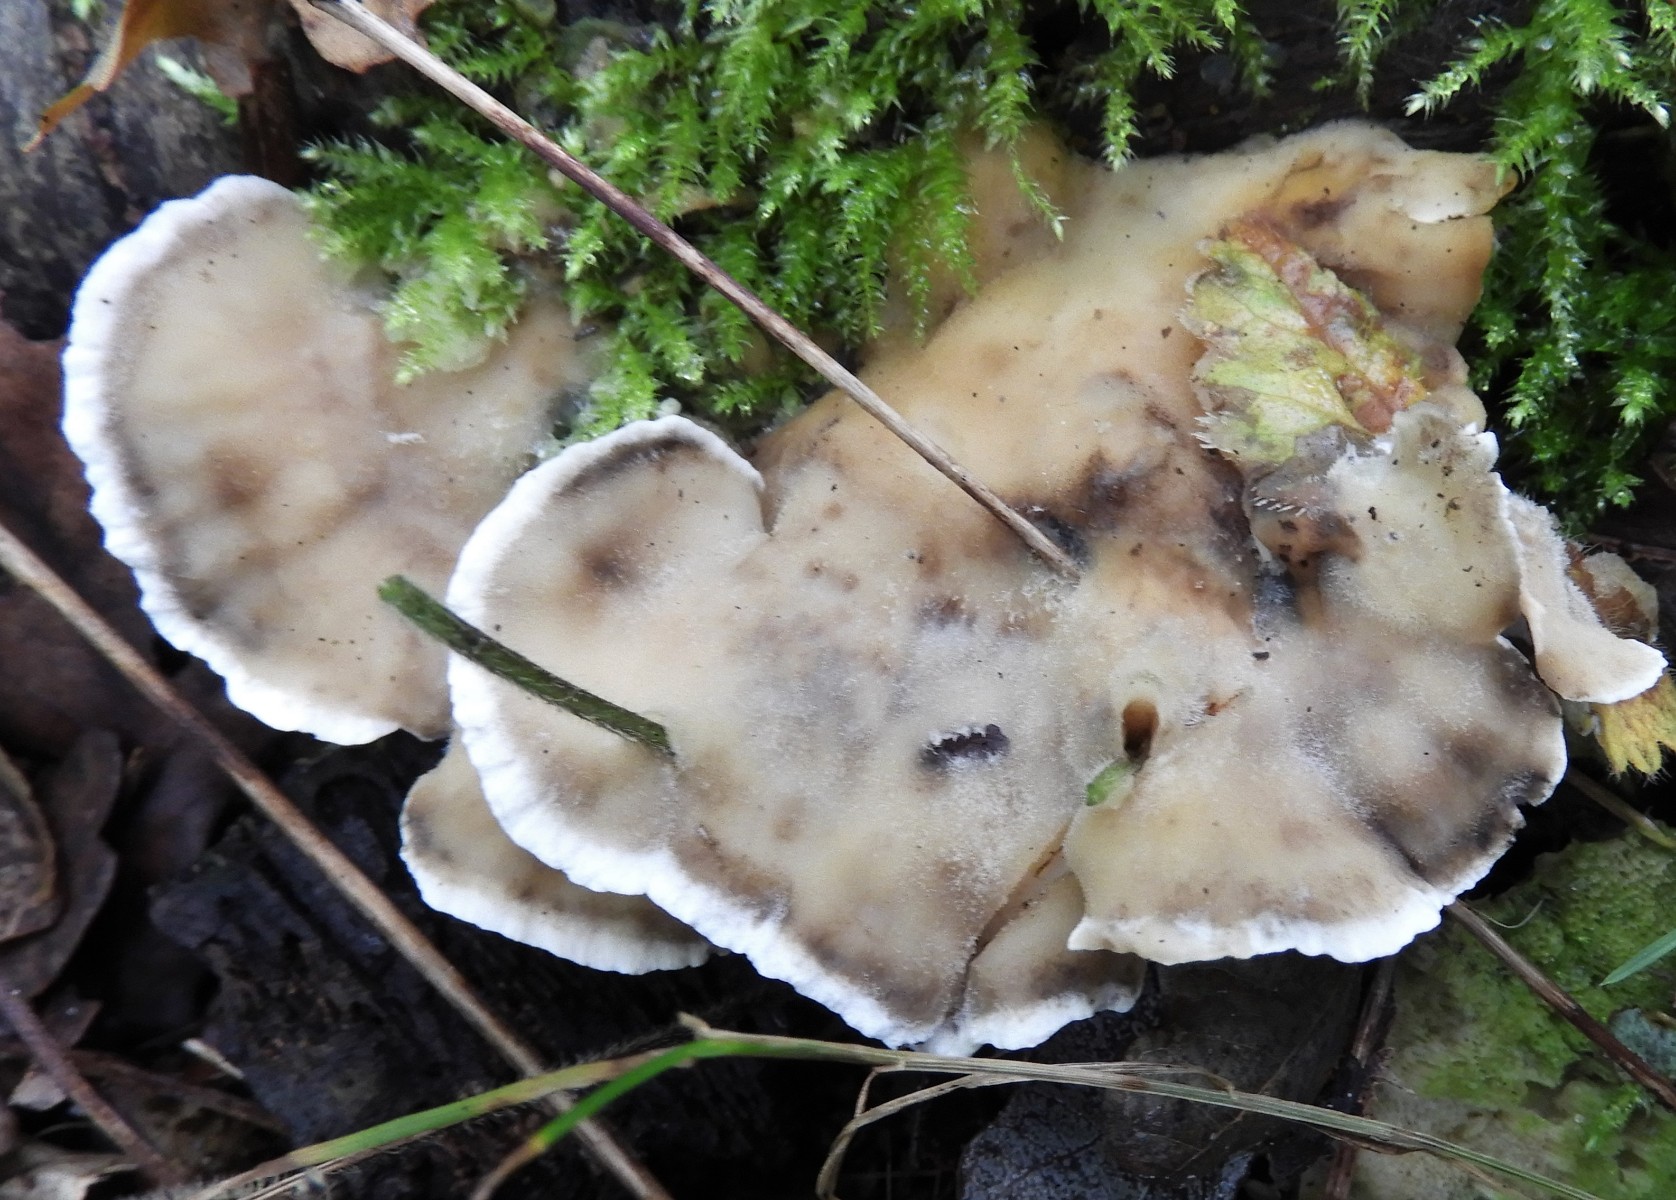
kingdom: Fungi
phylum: Basidiomycota
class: Agaricomycetes
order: Polyporales
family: Phanerochaetaceae
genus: Bjerkandera
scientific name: Bjerkandera adusta
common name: sveden sodporesvamp
